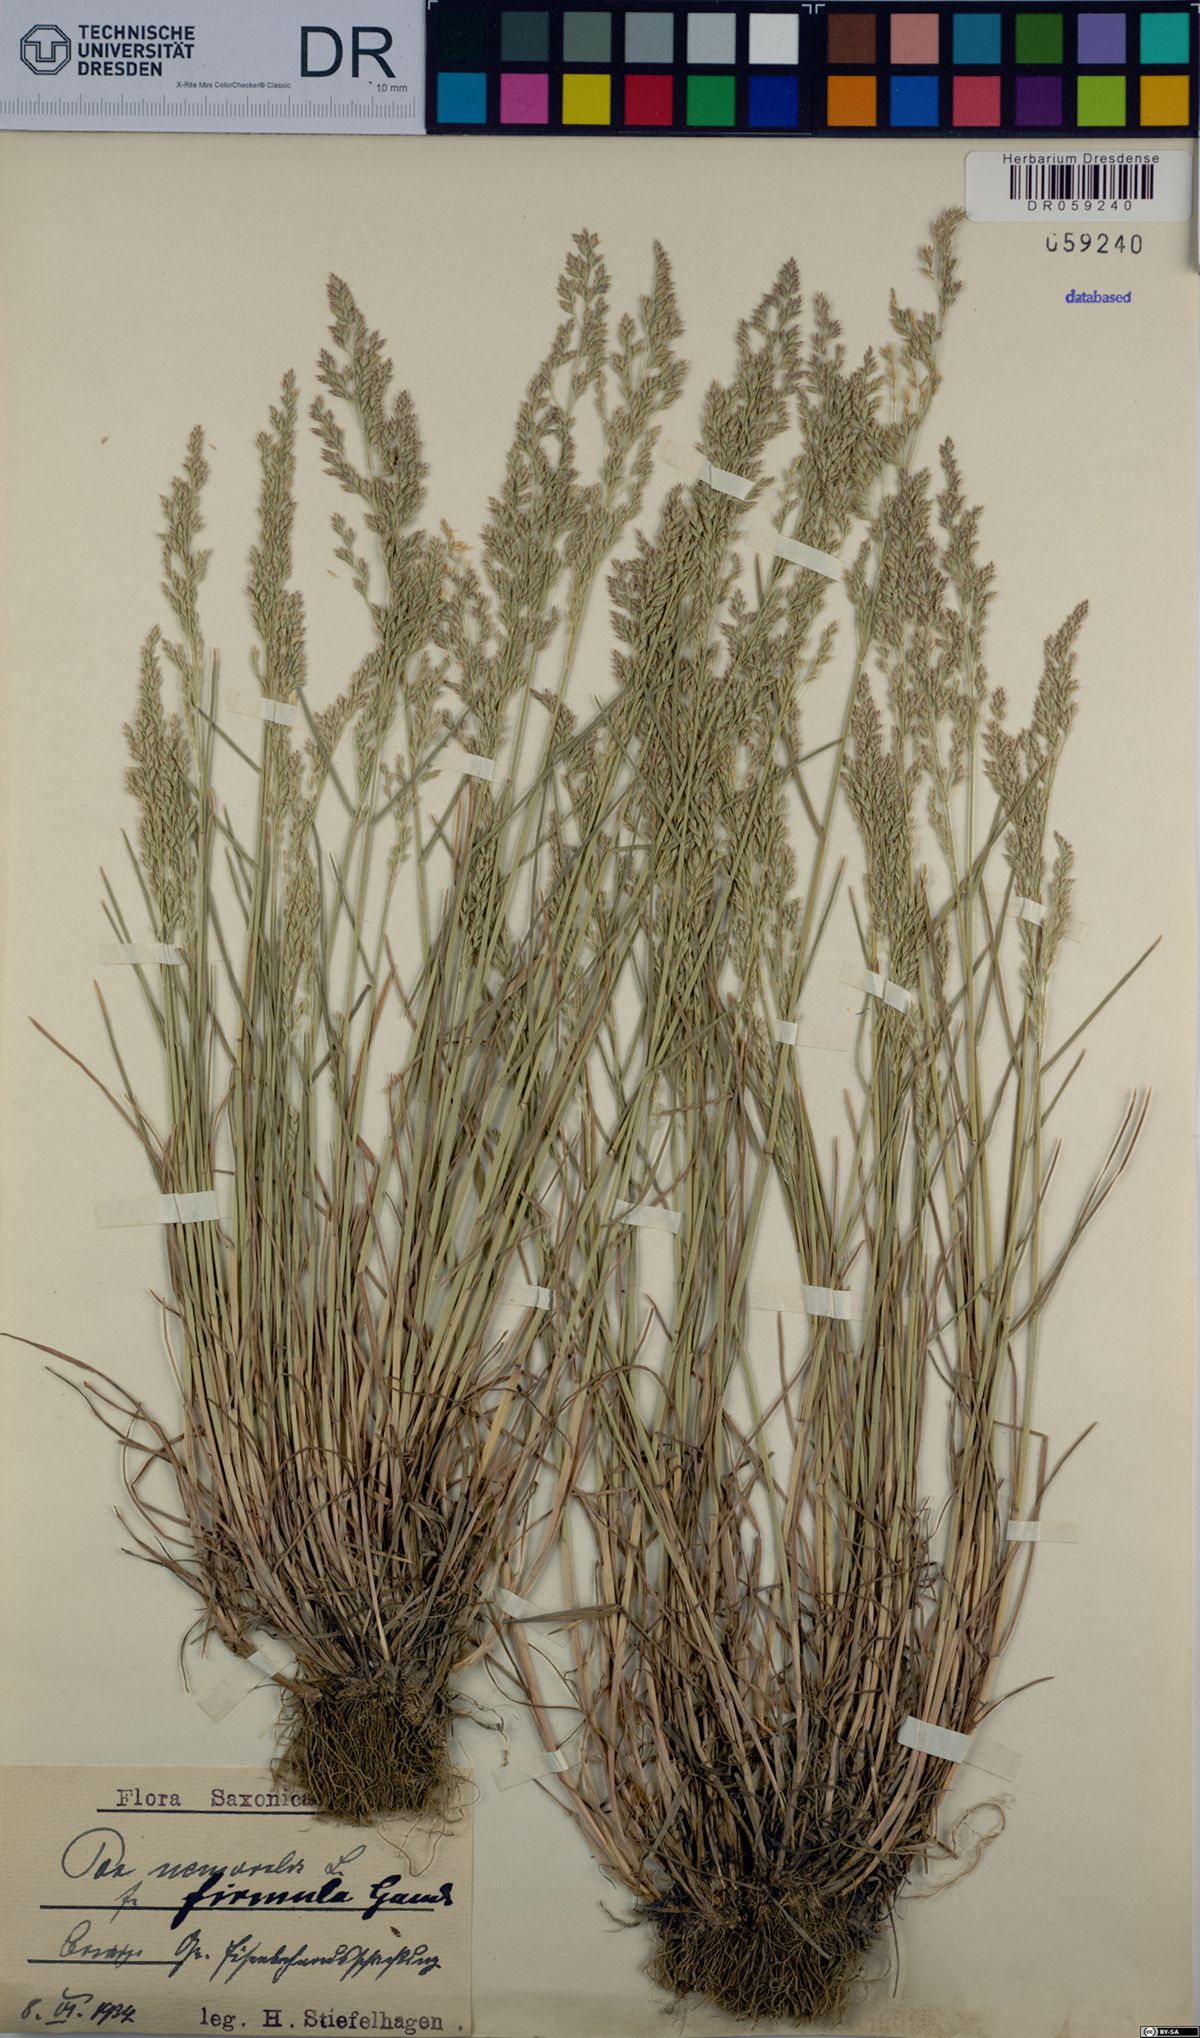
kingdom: Plantae
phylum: Tracheophyta
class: Liliopsida
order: Poales
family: Poaceae
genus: Poa
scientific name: Poa nemoralis
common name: Wood bluegrass
